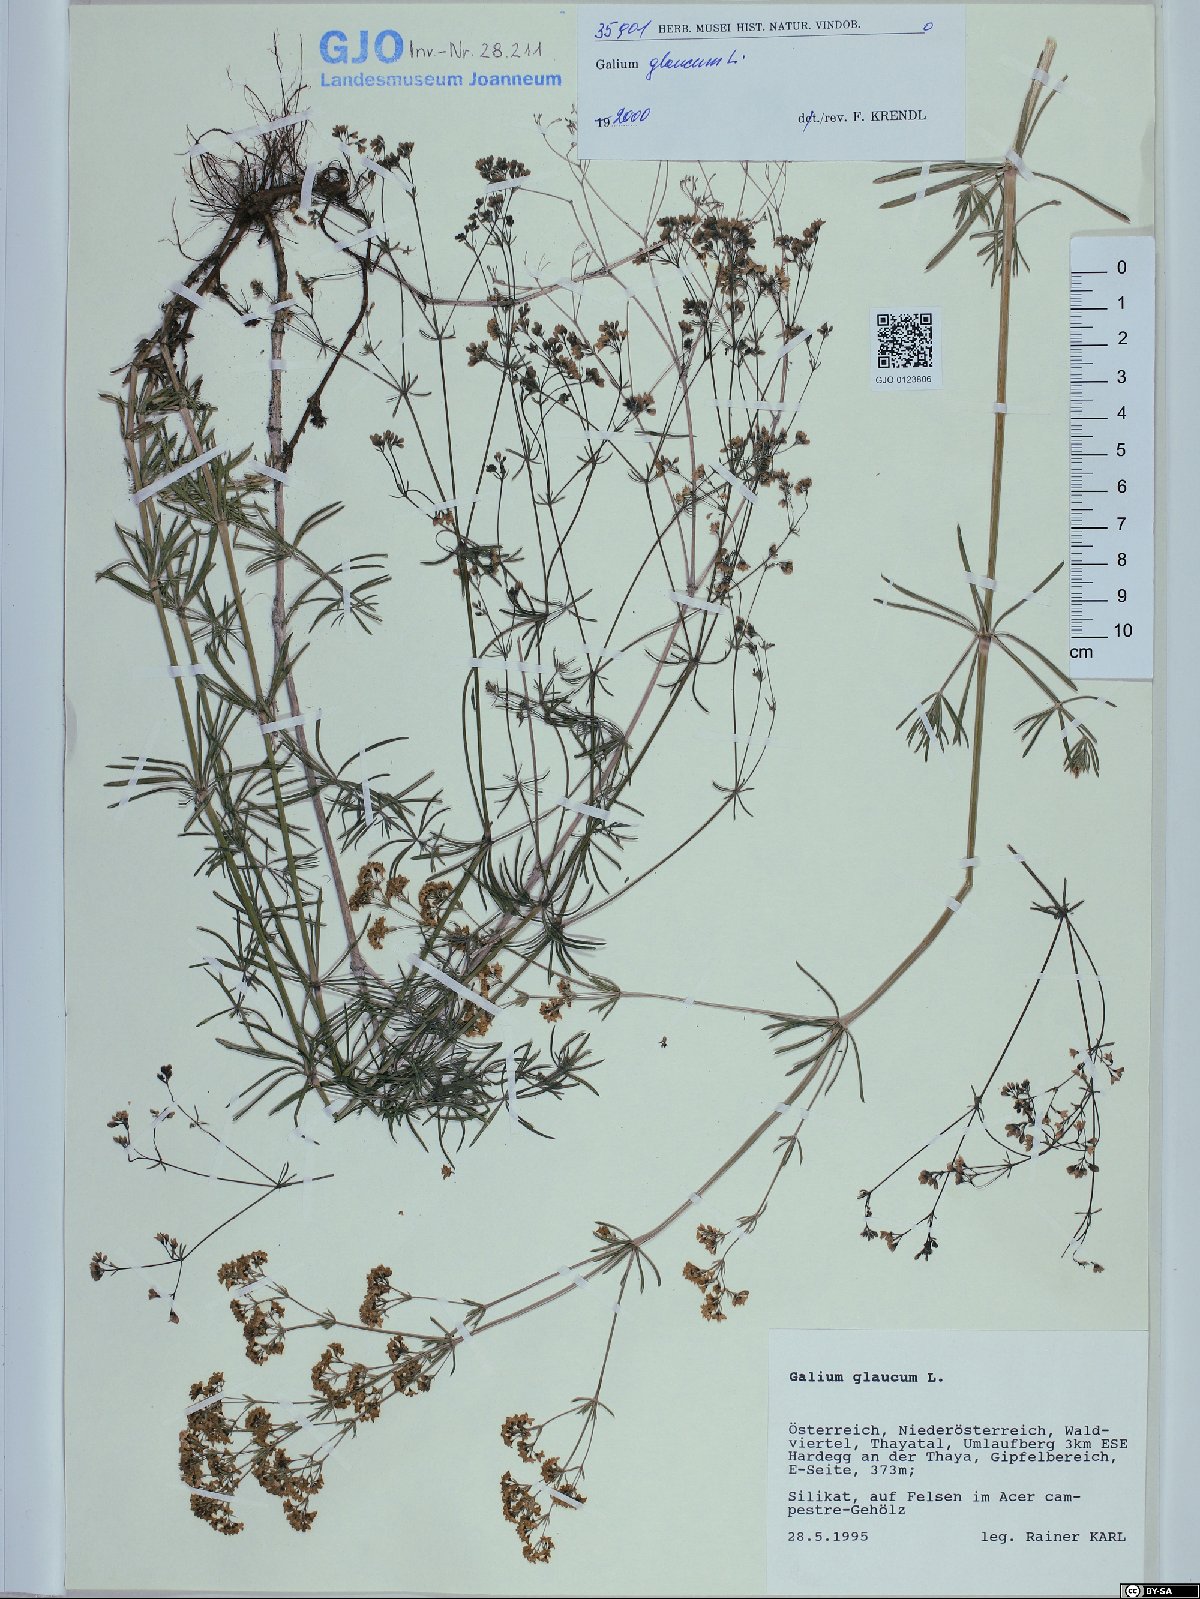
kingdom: Plantae
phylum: Tracheophyta
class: Magnoliopsida
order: Gentianales
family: Rubiaceae
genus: Galium
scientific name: Galium glaucum
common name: Waxy bedstraw
